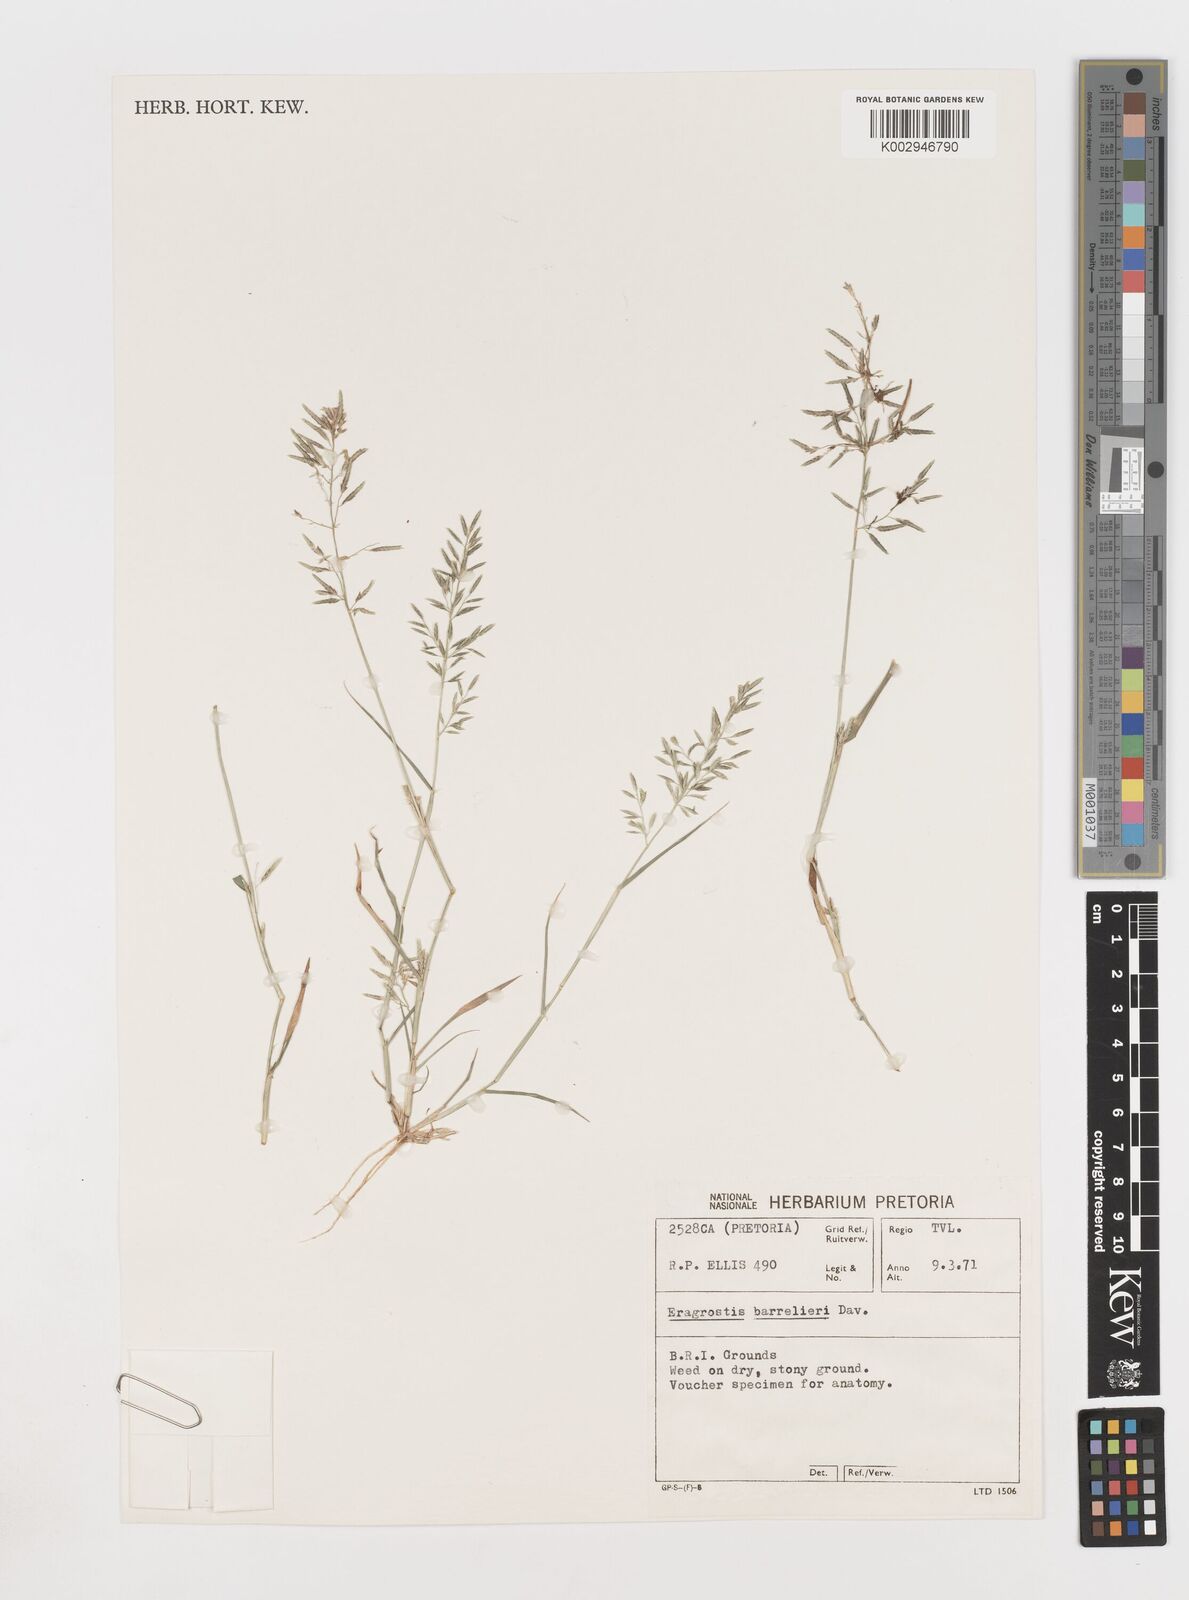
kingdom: Plantae
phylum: Tracheophyta
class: Liliopsida
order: Poales
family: Poaceae
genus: Eragrostis
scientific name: Eragrostis barrelieri
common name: Mediterranean lovegrass
